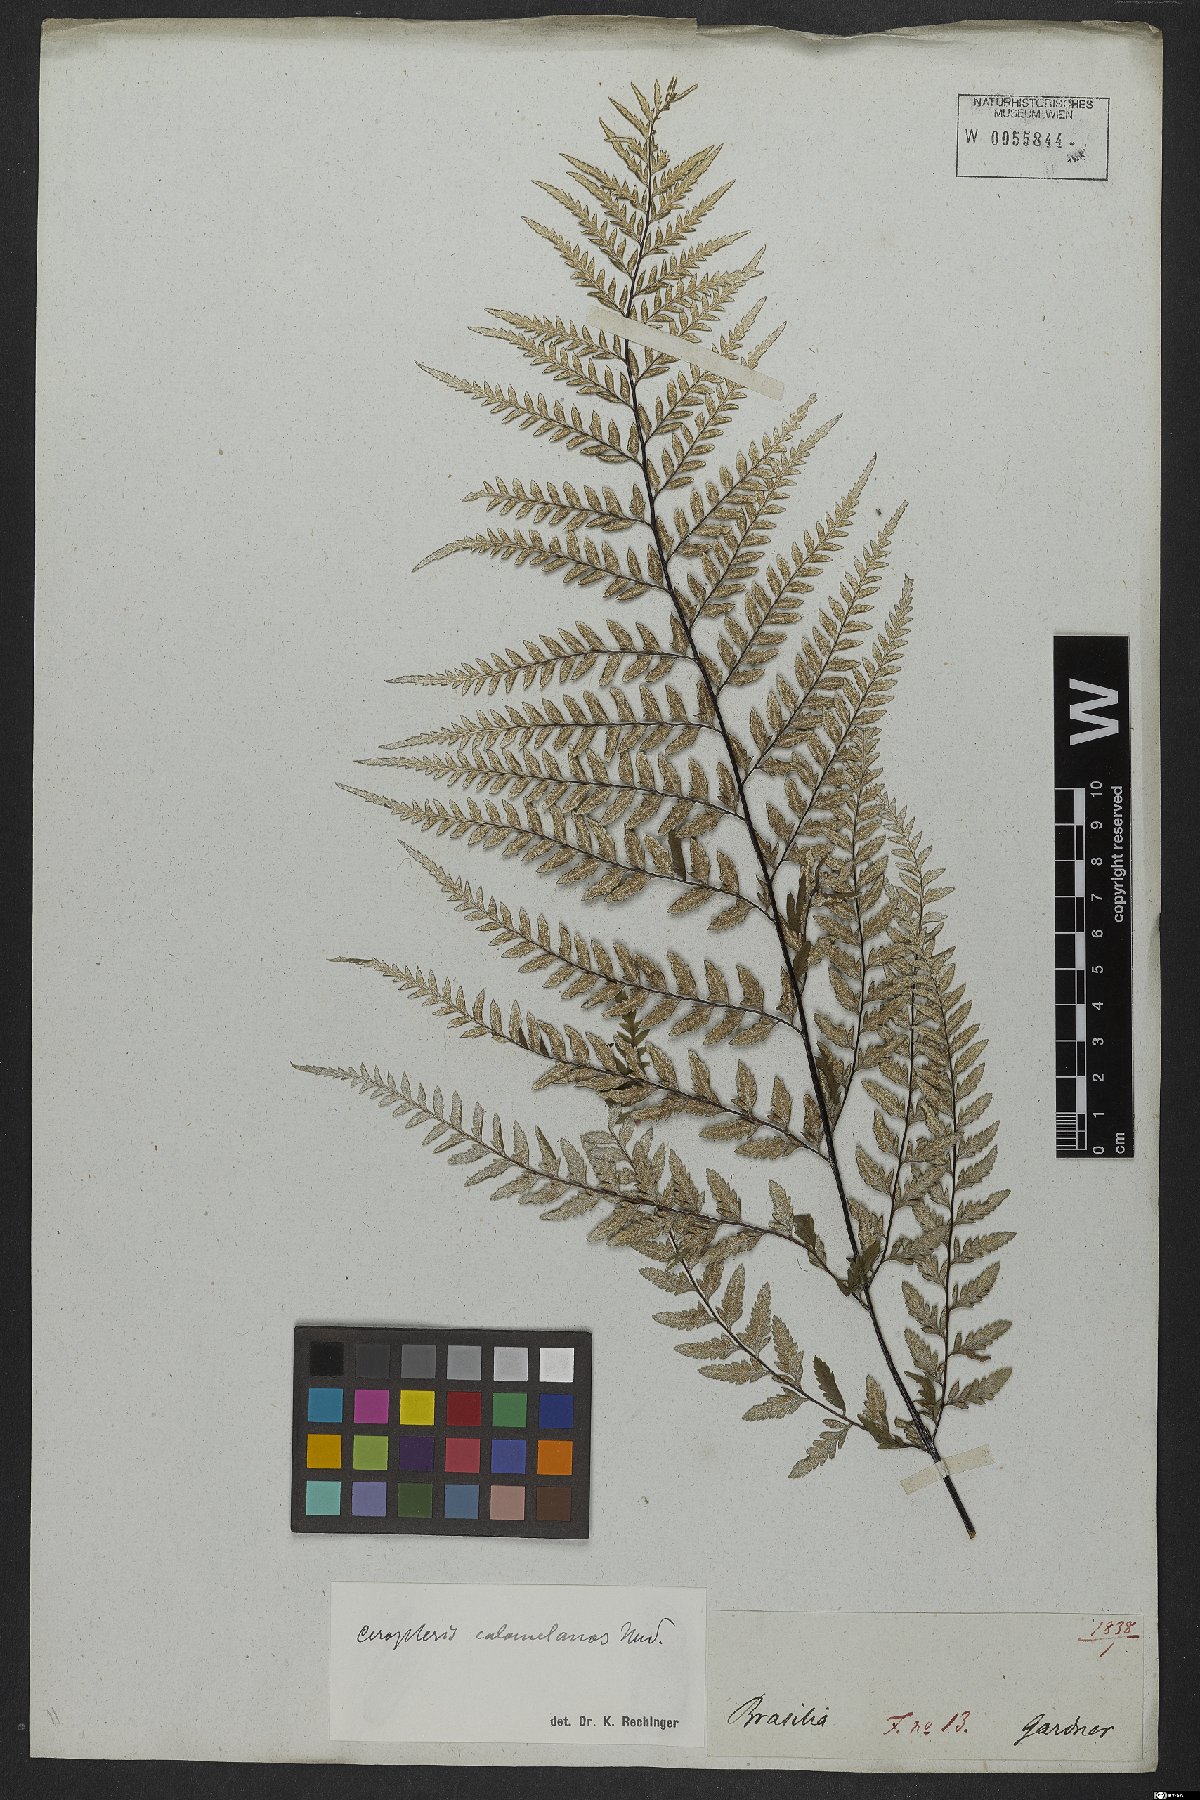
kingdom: Plantae
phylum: Tracheophyta
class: Polypodiopsida
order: Polypodiales
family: Pteridaceae
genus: Pityrogramma
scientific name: Pityrogramma calomelanos
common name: Dixie silverback fern
